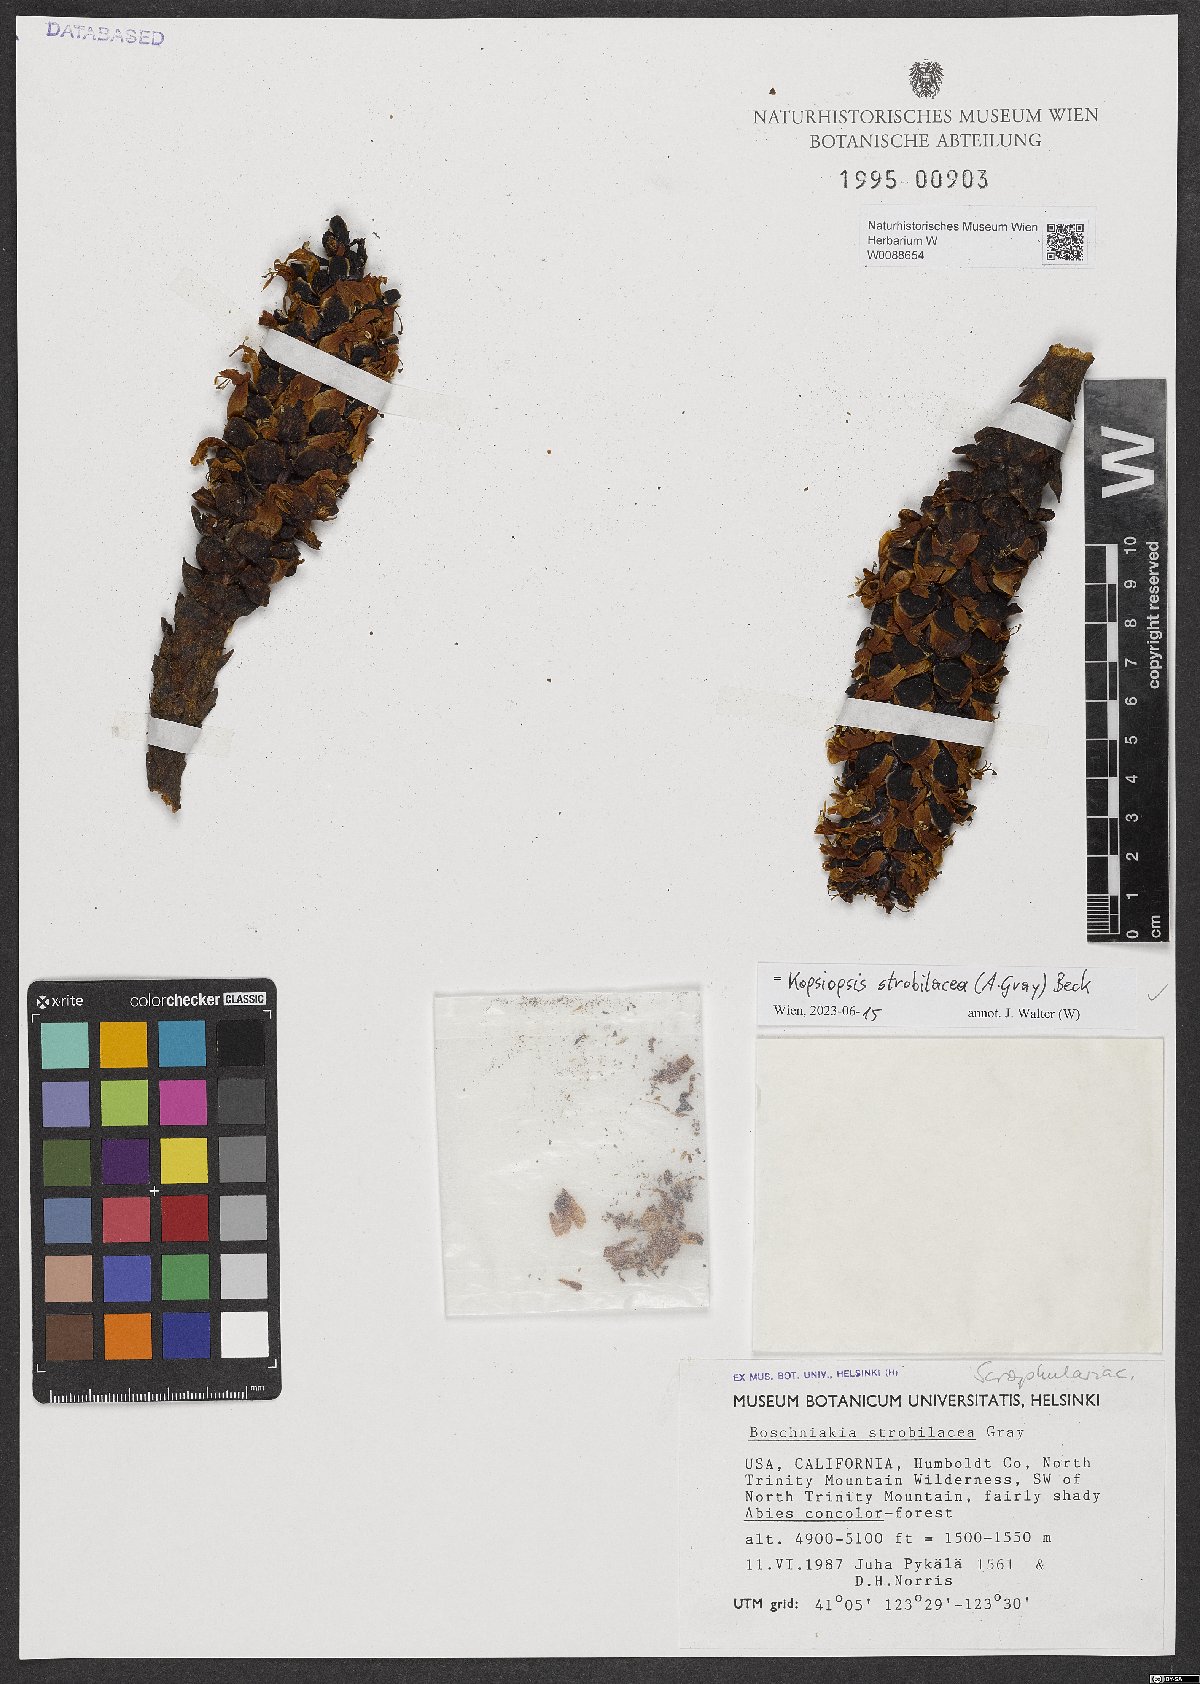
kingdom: Plantae
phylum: Tracheophyta
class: Magnoliopsida
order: Lamiales
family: Orobanchaceae
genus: Kopsiopsis
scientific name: Kopsiopsis strobilacea
